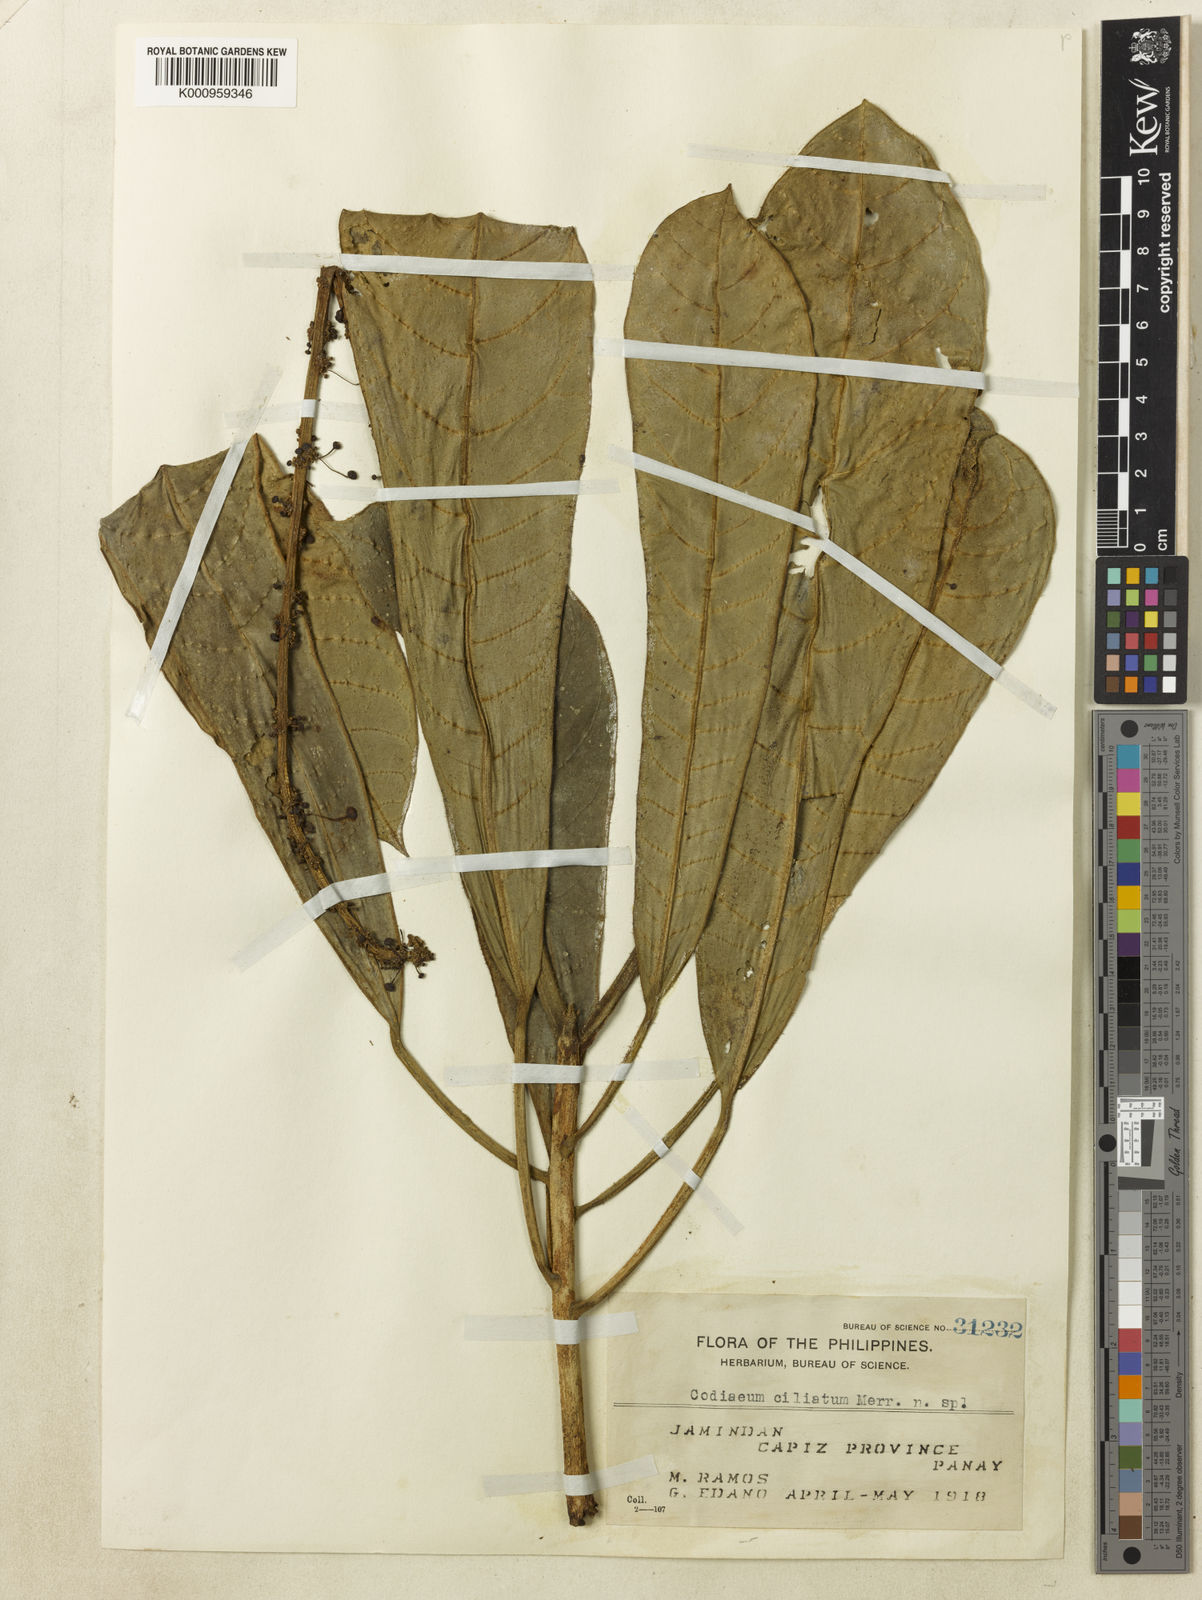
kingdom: Plantae
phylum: Tracheophyta
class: Magnoliopsida
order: Malpighiales
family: Euphorbiaceae
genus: Codiaeum
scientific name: Codiaeum ciliatum
